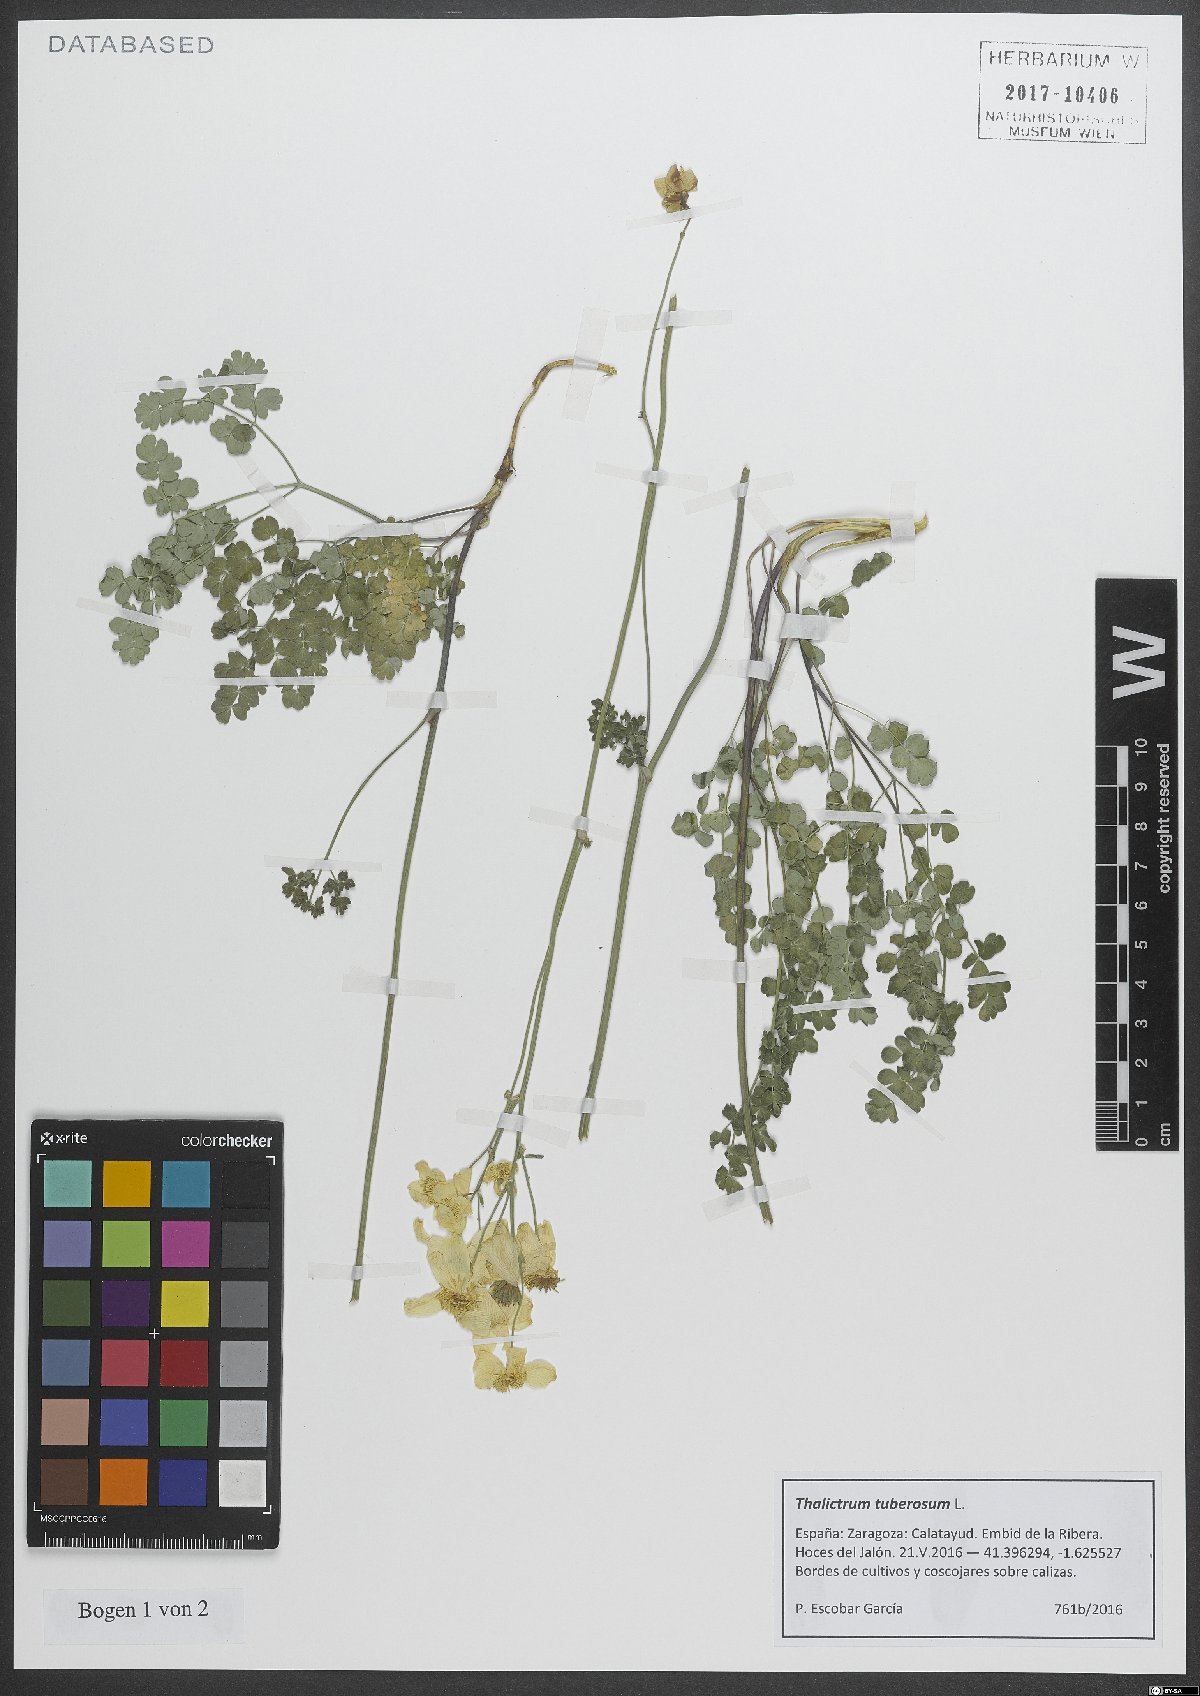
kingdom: Plantae
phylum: Tracheophyta
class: Magnoliopsida
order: Ranunculales
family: Ranunculaceae
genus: Thalictrum
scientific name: Thalictrum tuberosum
